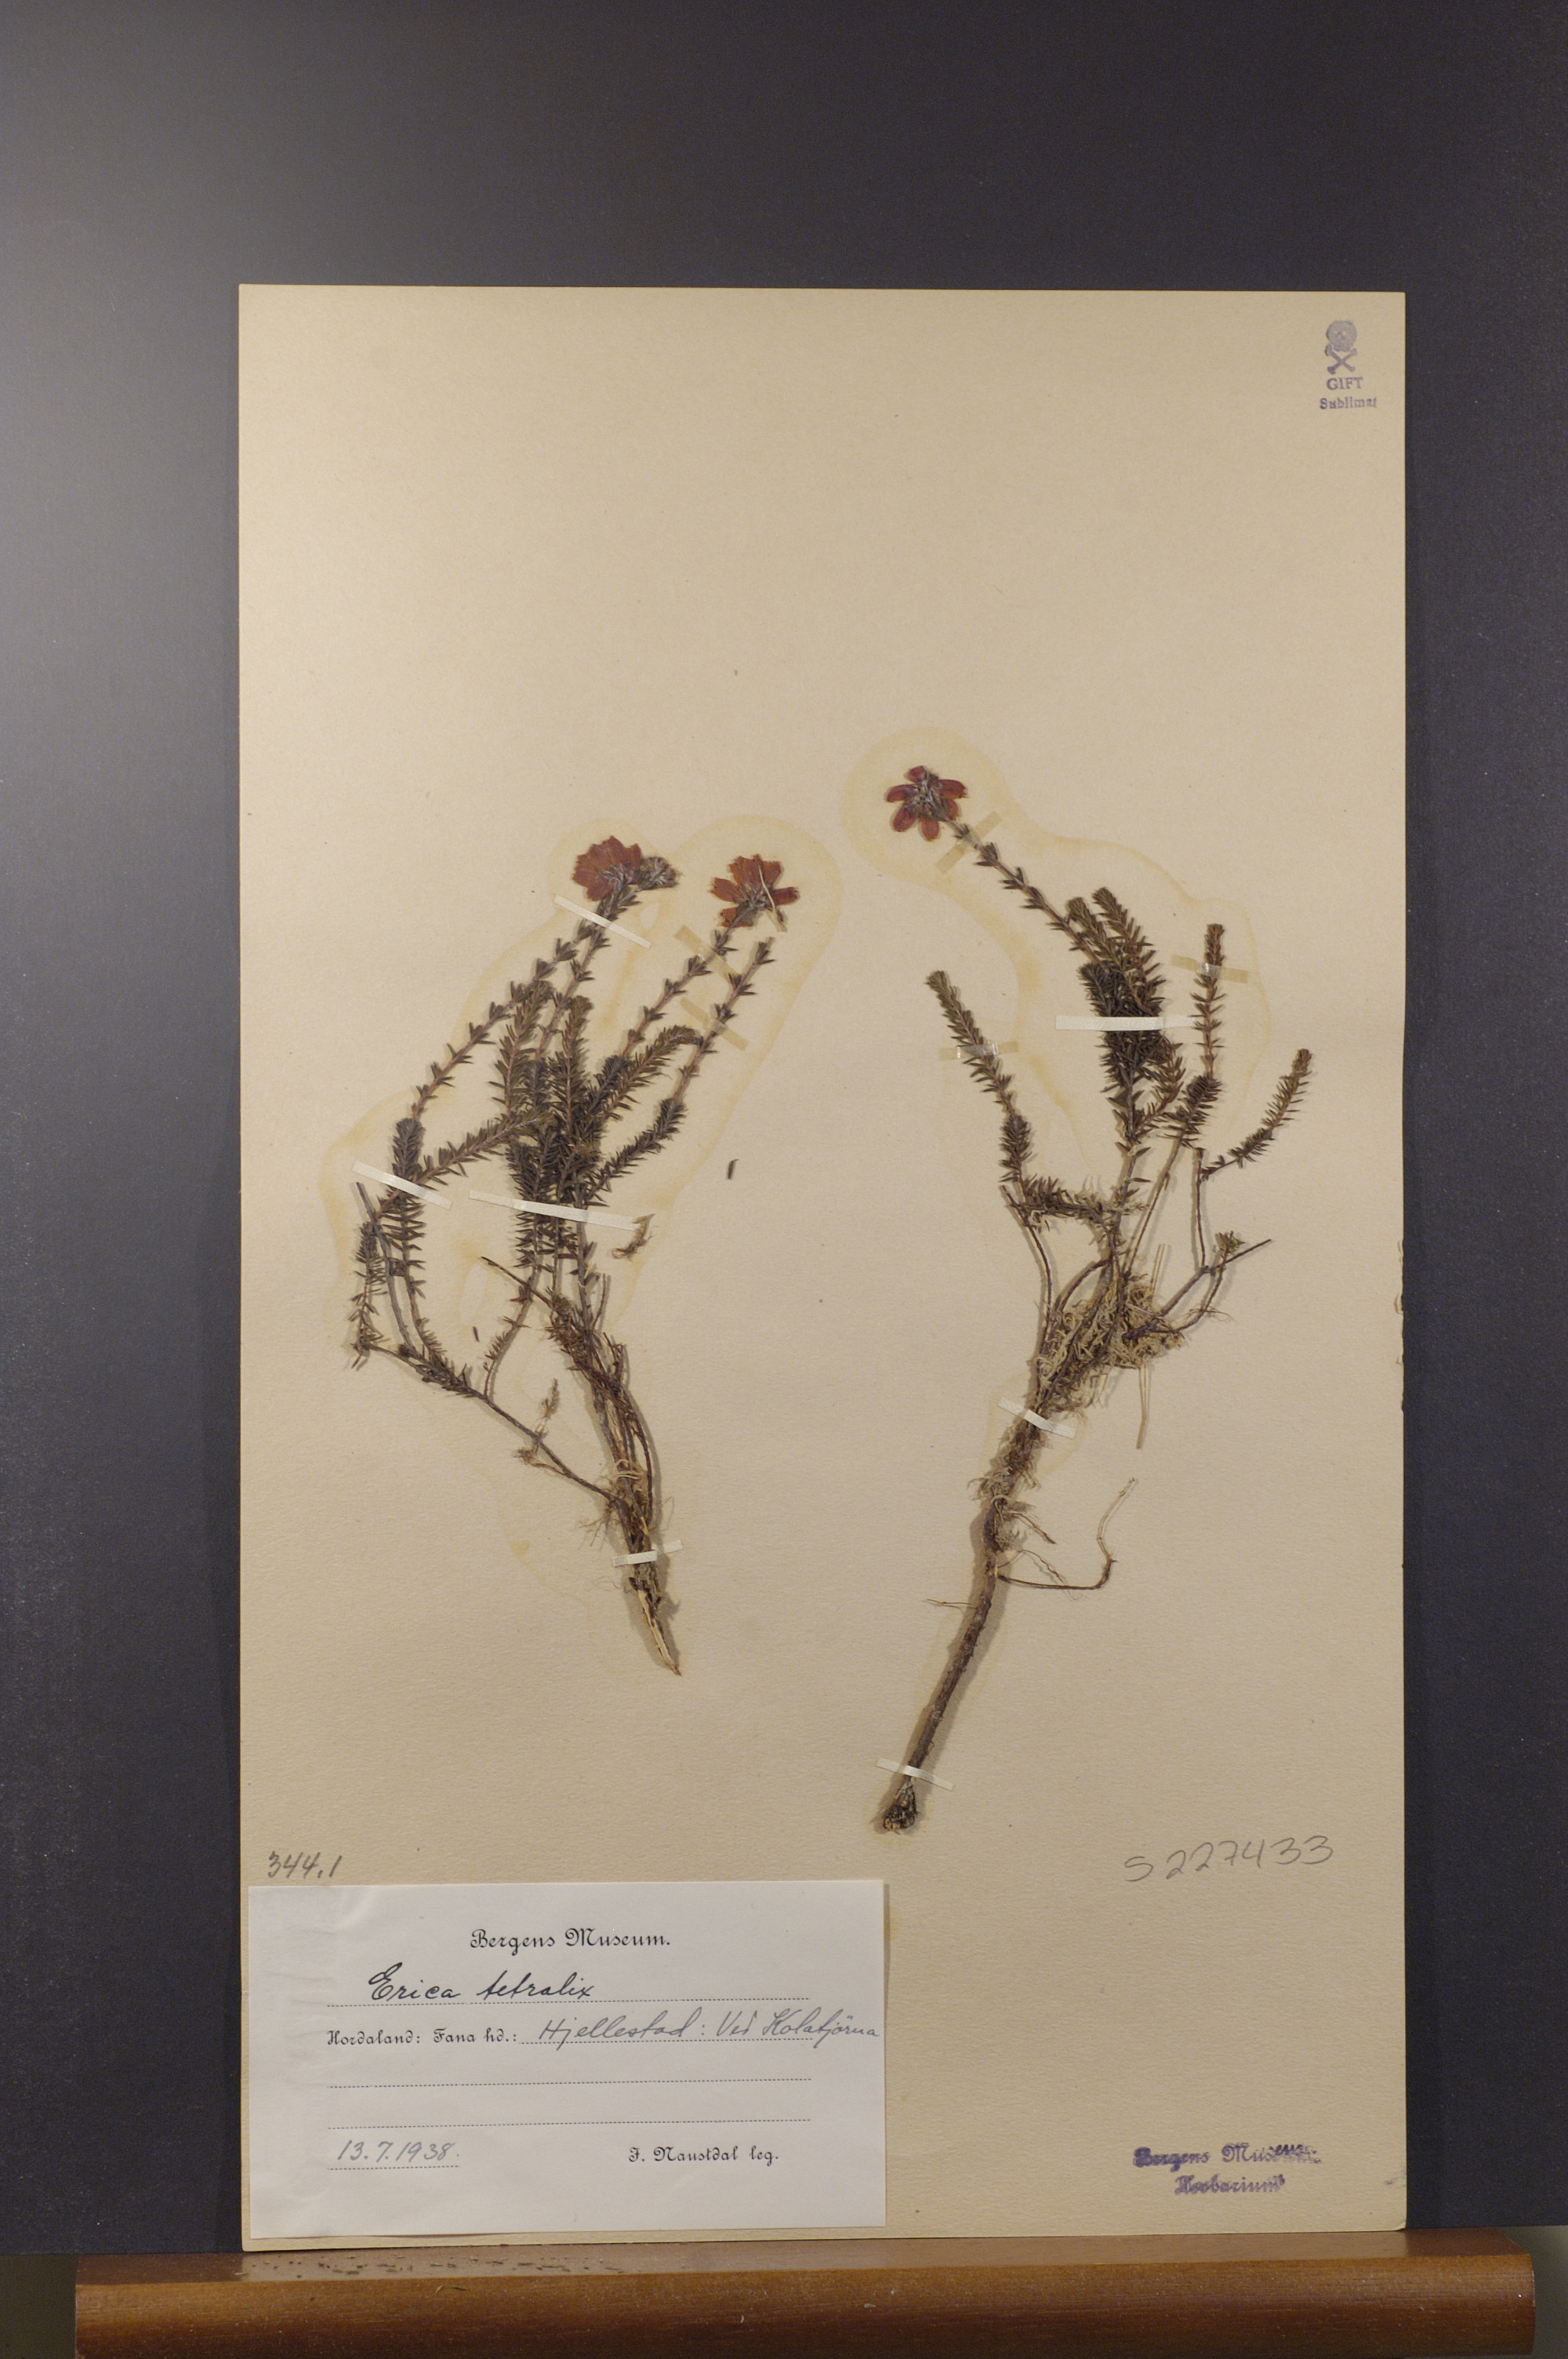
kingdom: Plantae
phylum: Tracheophyta
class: Magnoliopsida
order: Ericales
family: Ericaceae
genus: Erica
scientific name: Erica tetralix
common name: Cross-leaved heath
